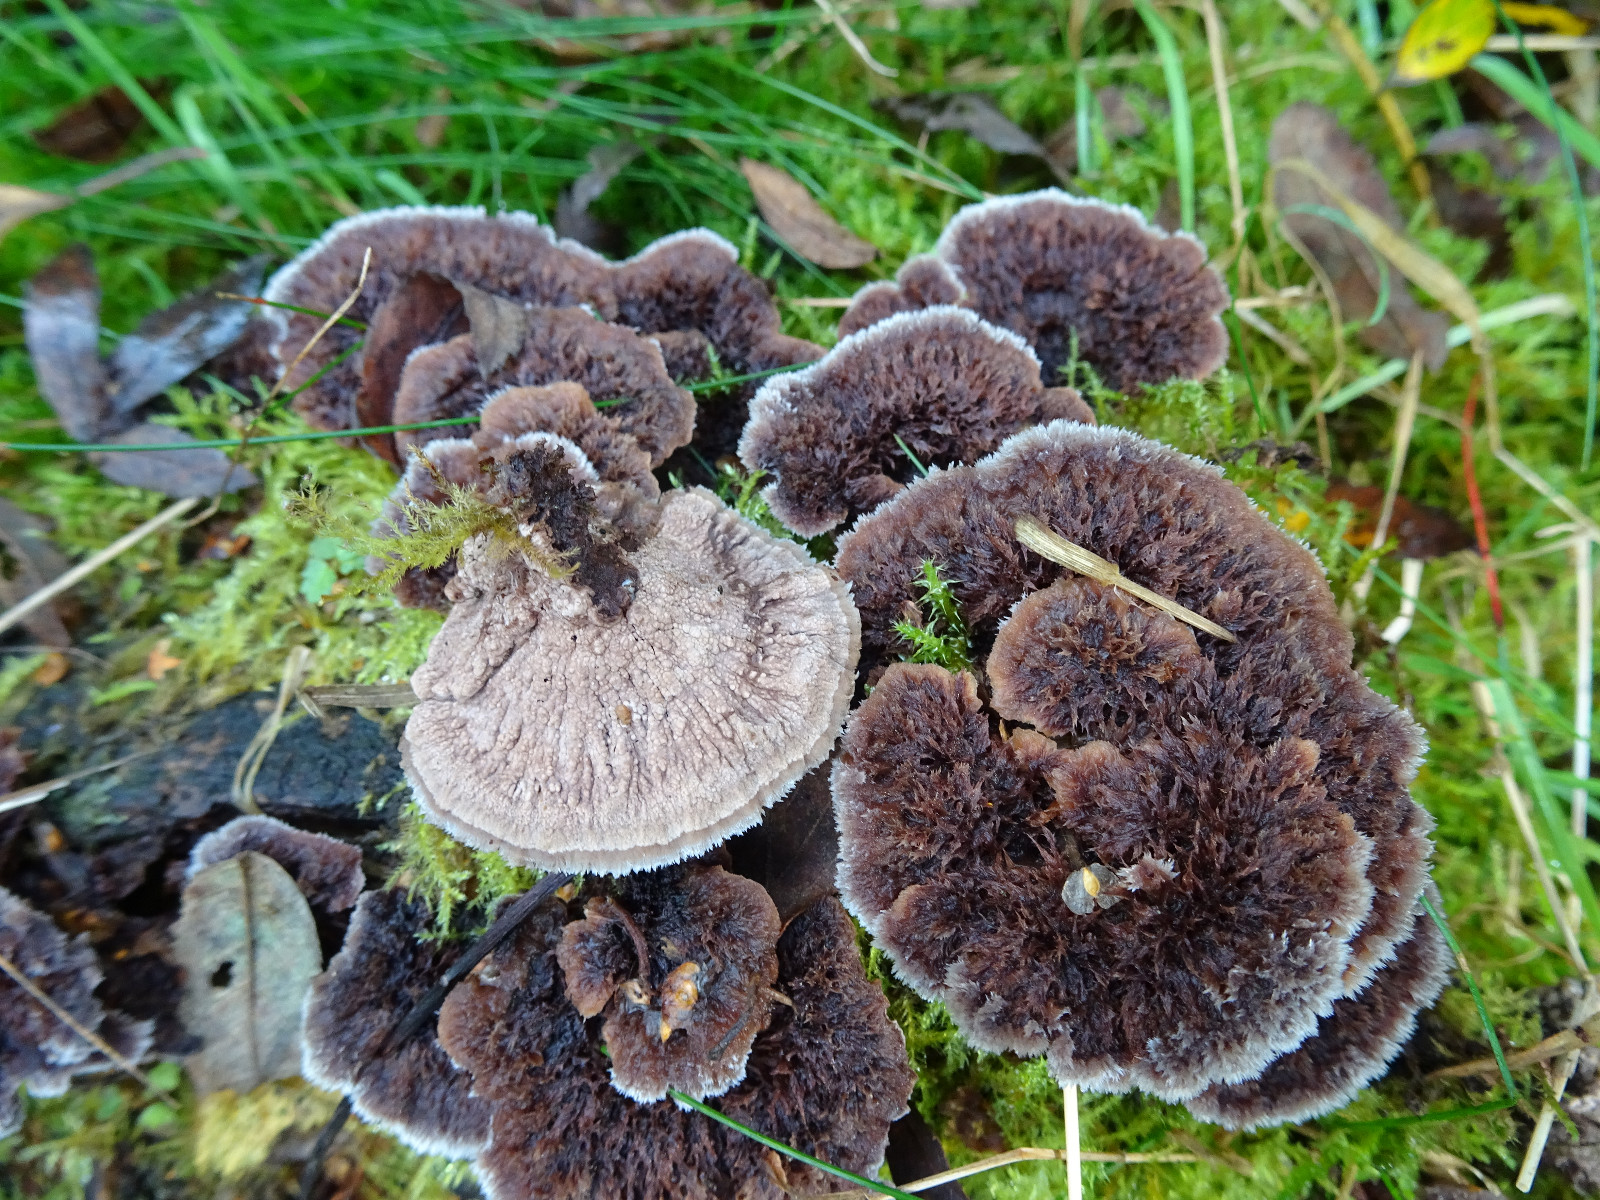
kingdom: Fungi
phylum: Basidiomycota
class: Agaricomycetes
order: Thelephorales
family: Thelephoraceae
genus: Thelephora
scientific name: Thelephora terrestris
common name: fliget frynsesvamp
